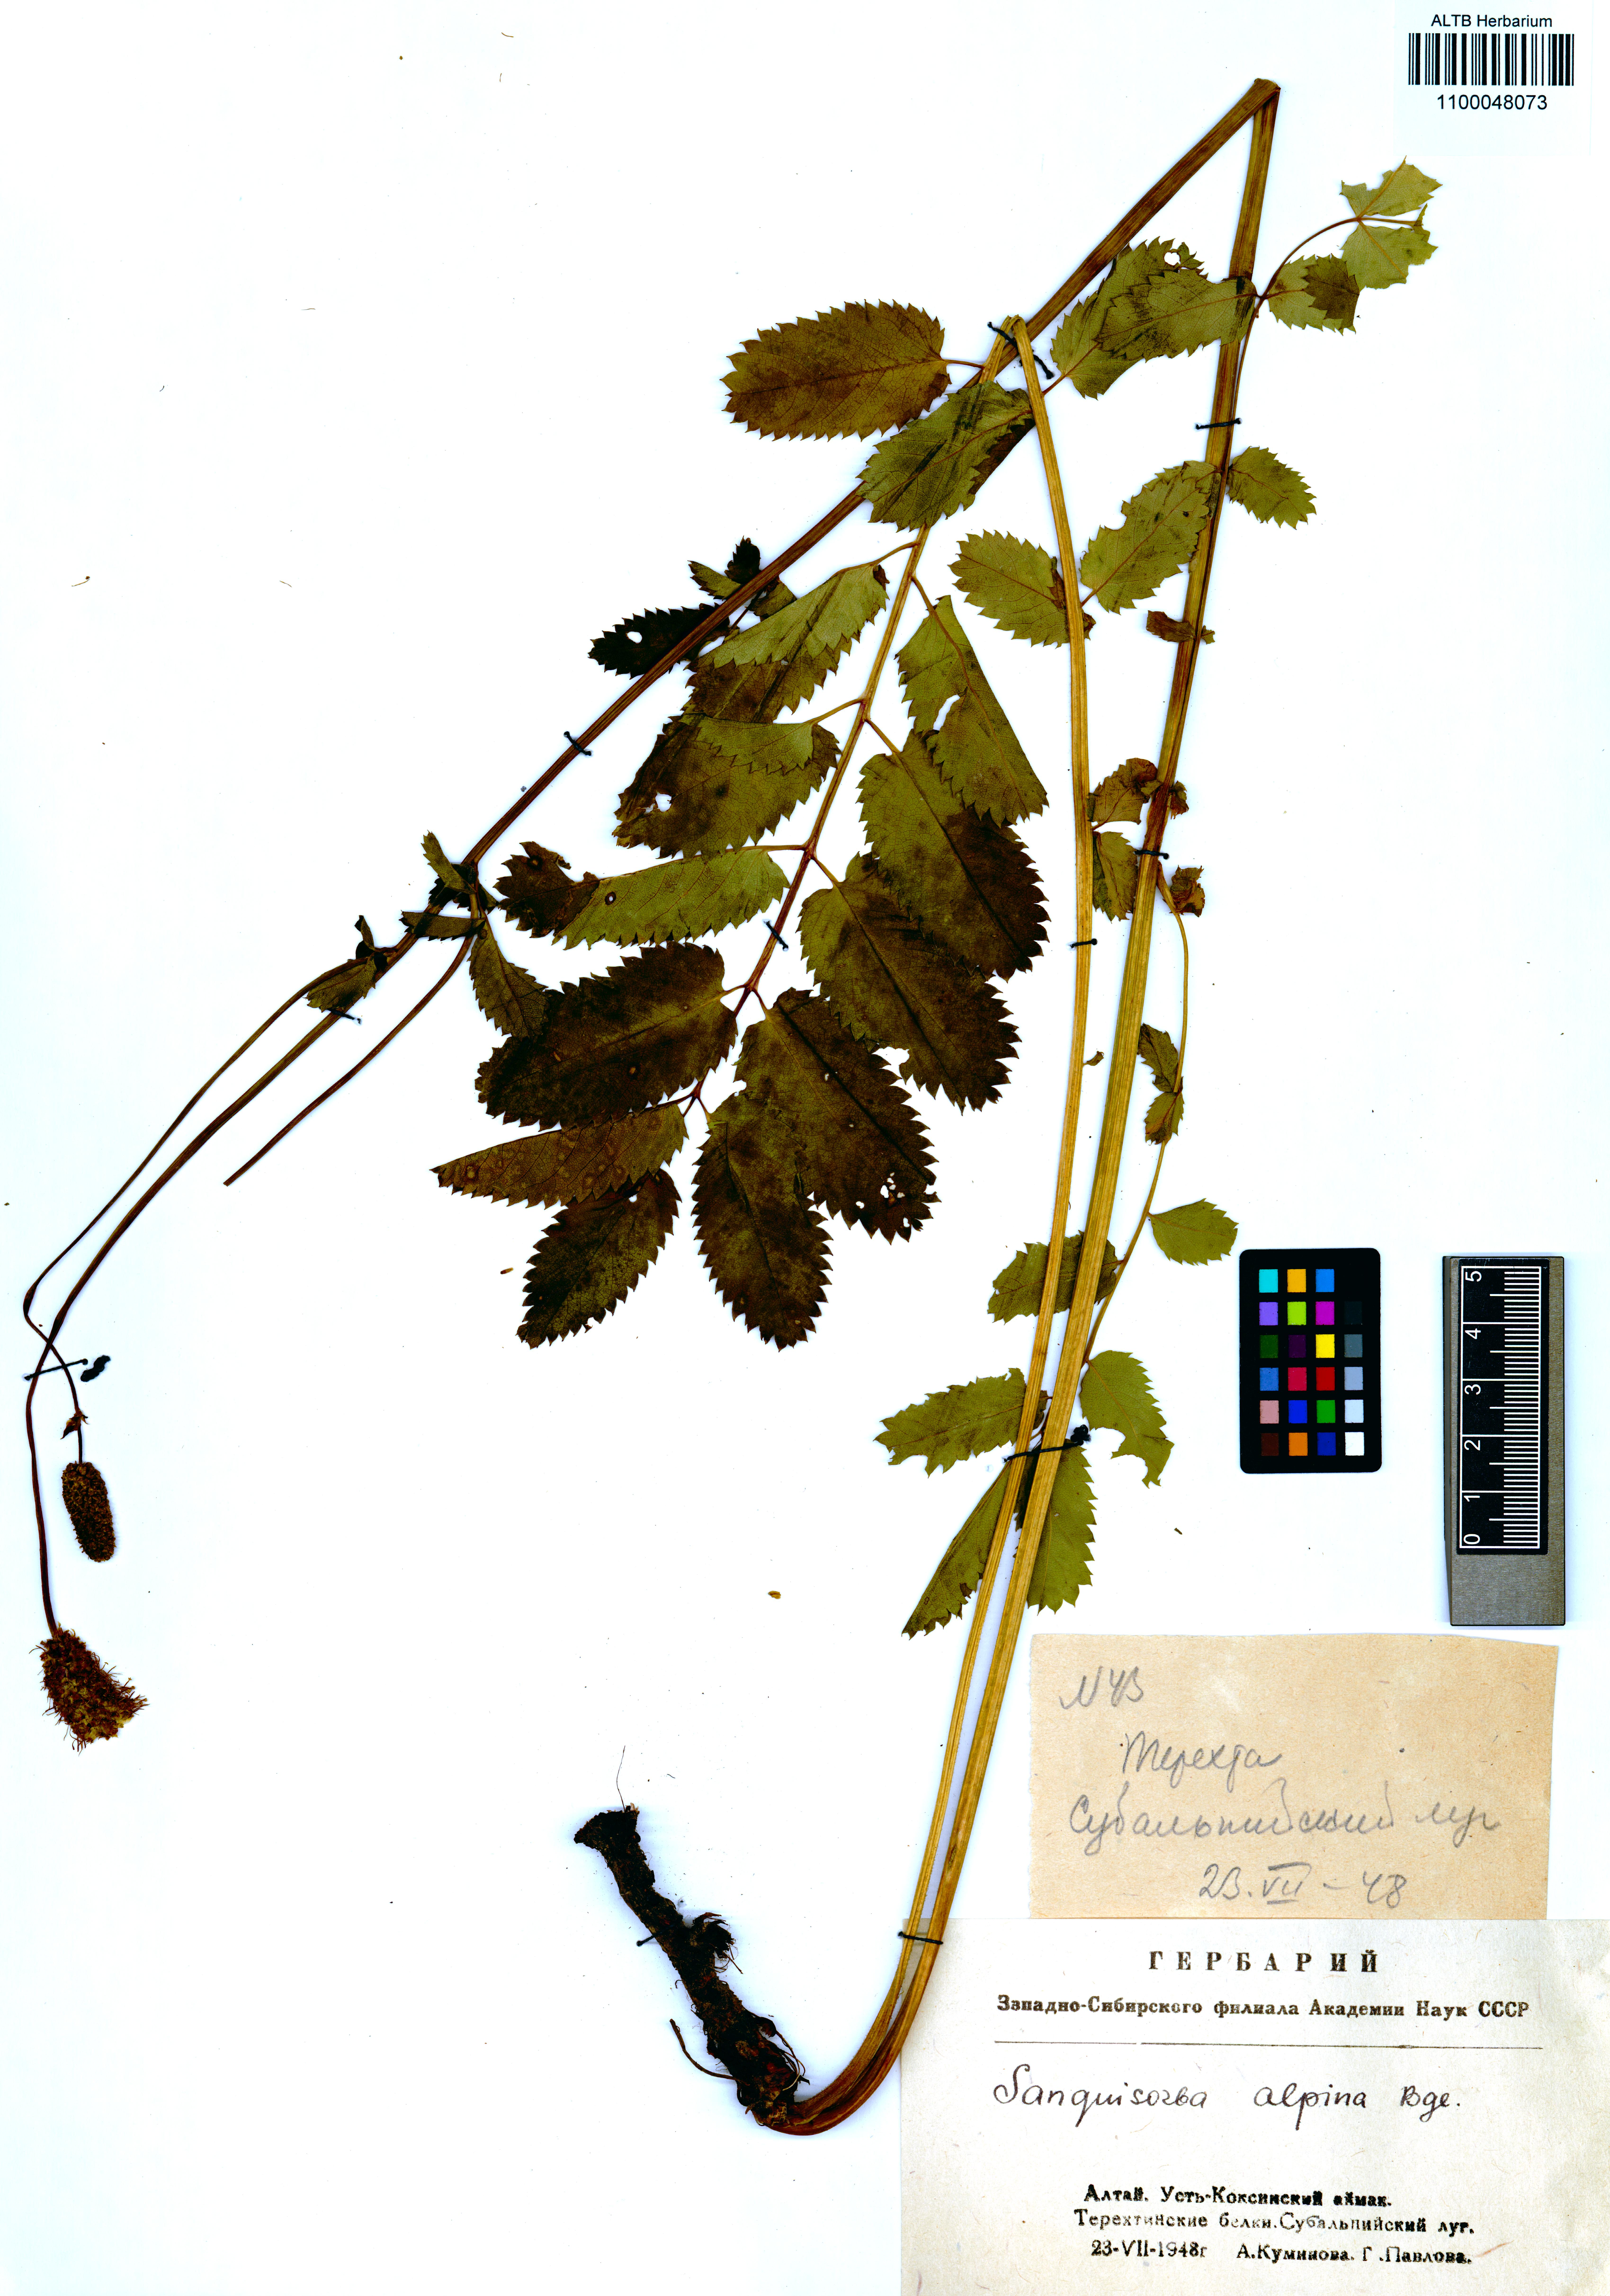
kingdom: Plantae
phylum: Tracheophyta
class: Magnoliopsida
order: Rosales
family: Rosaceae
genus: Sanguisorba
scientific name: Sanguisorba alpina
